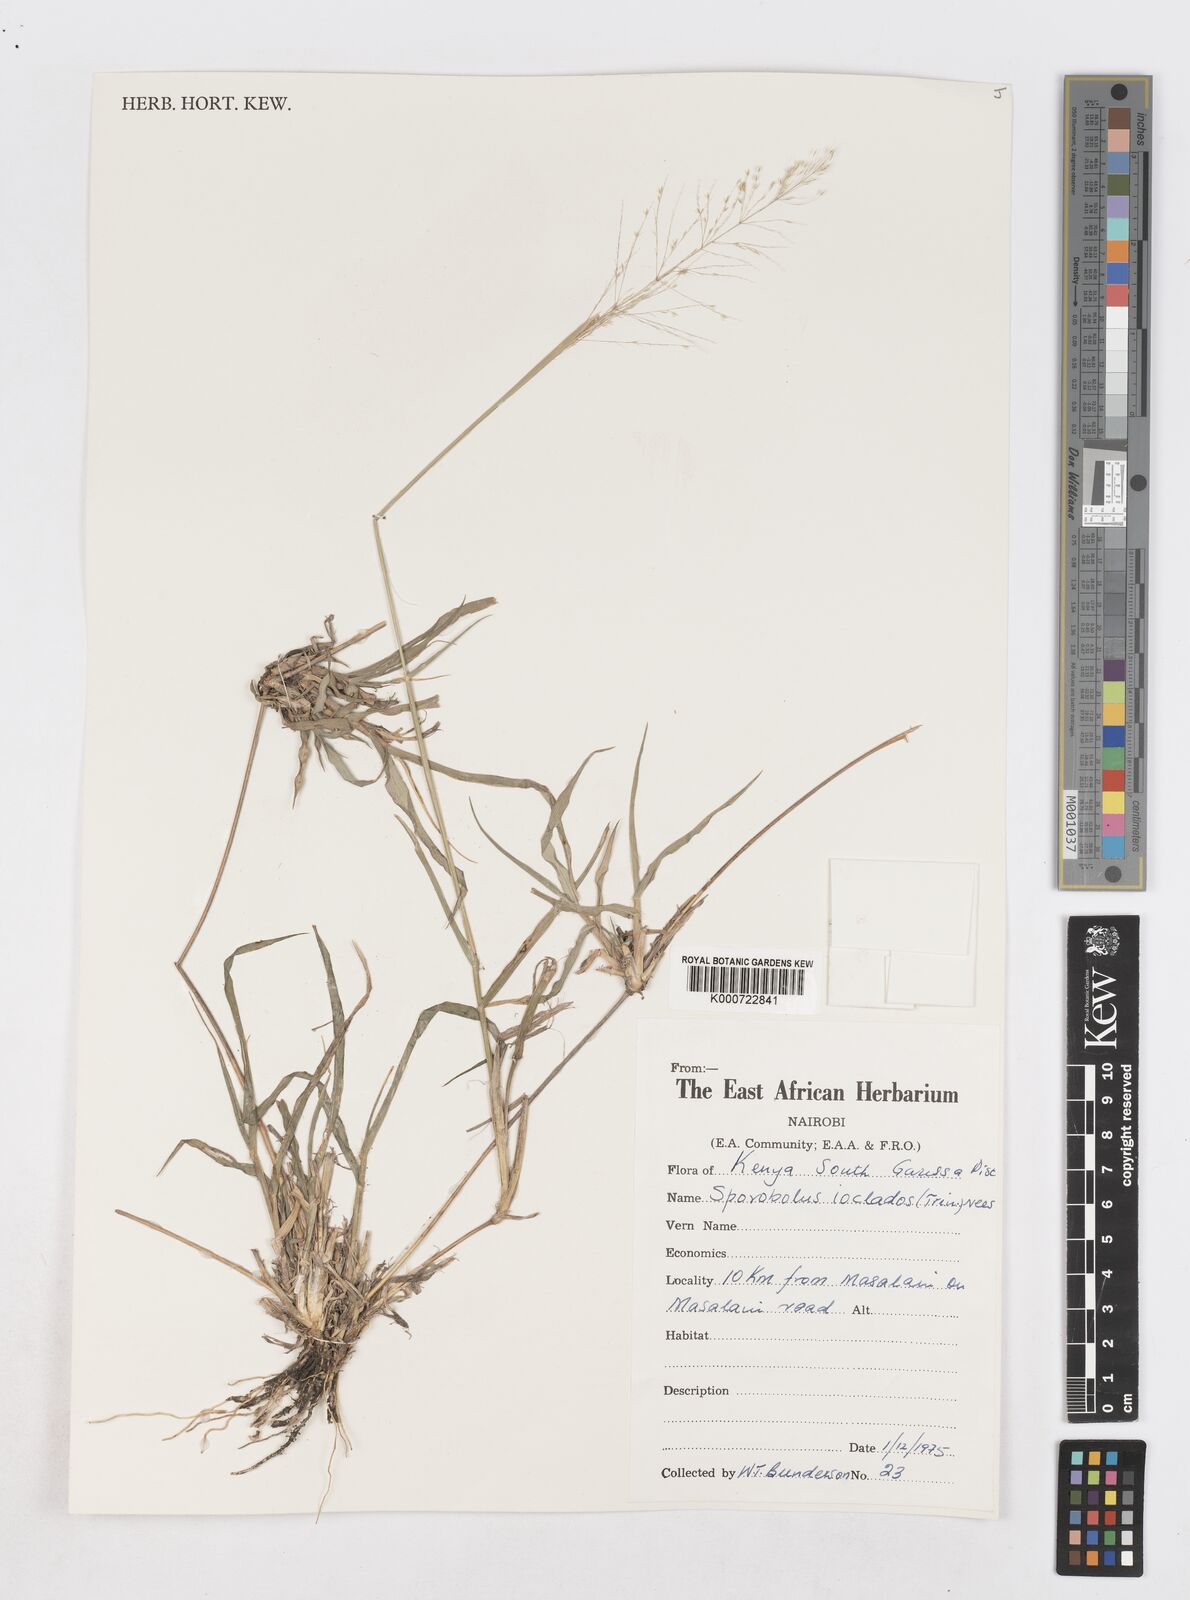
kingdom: Plantae
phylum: Tracheophyta
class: Liliopsida
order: Poales
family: Poaceae
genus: Sporobolus
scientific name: Sporobolus ioclados
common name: Pan dropseed
